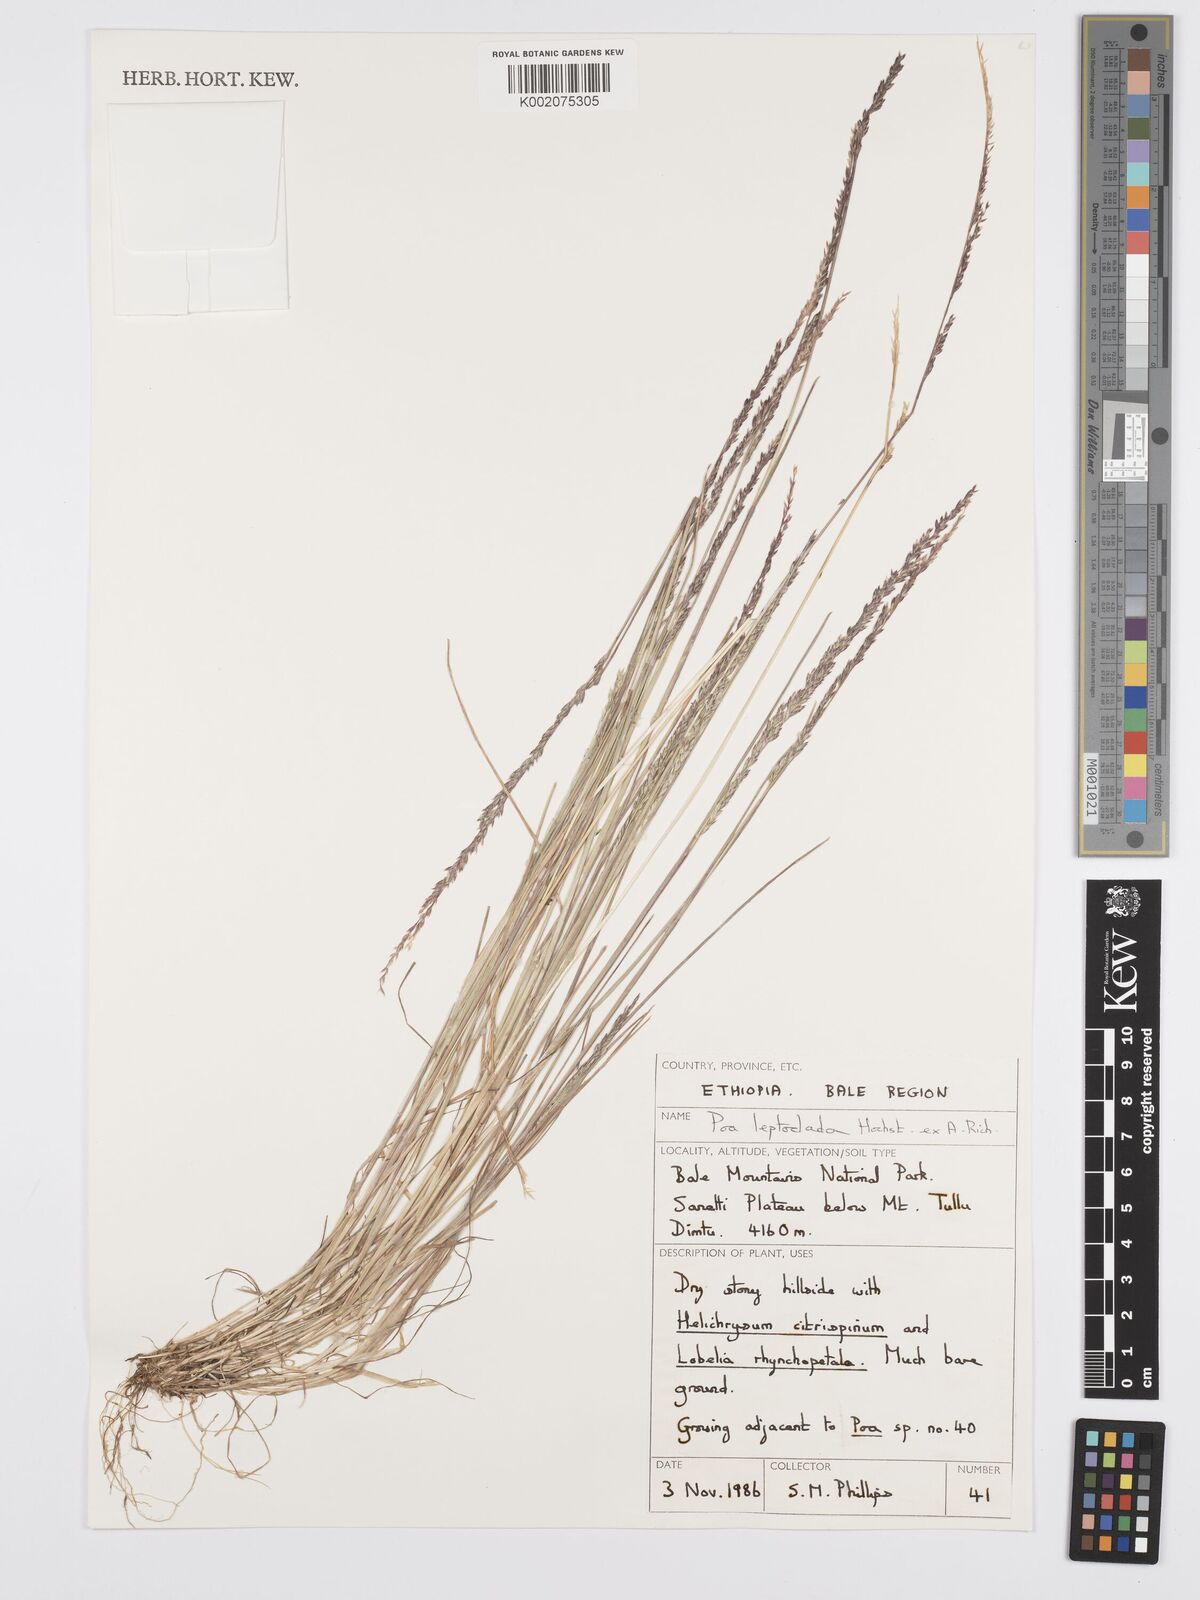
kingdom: Plantae
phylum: Tracheophyta
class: Liliopsida
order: Poales
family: Poaceae
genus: Poa
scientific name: Poa leptoclada
